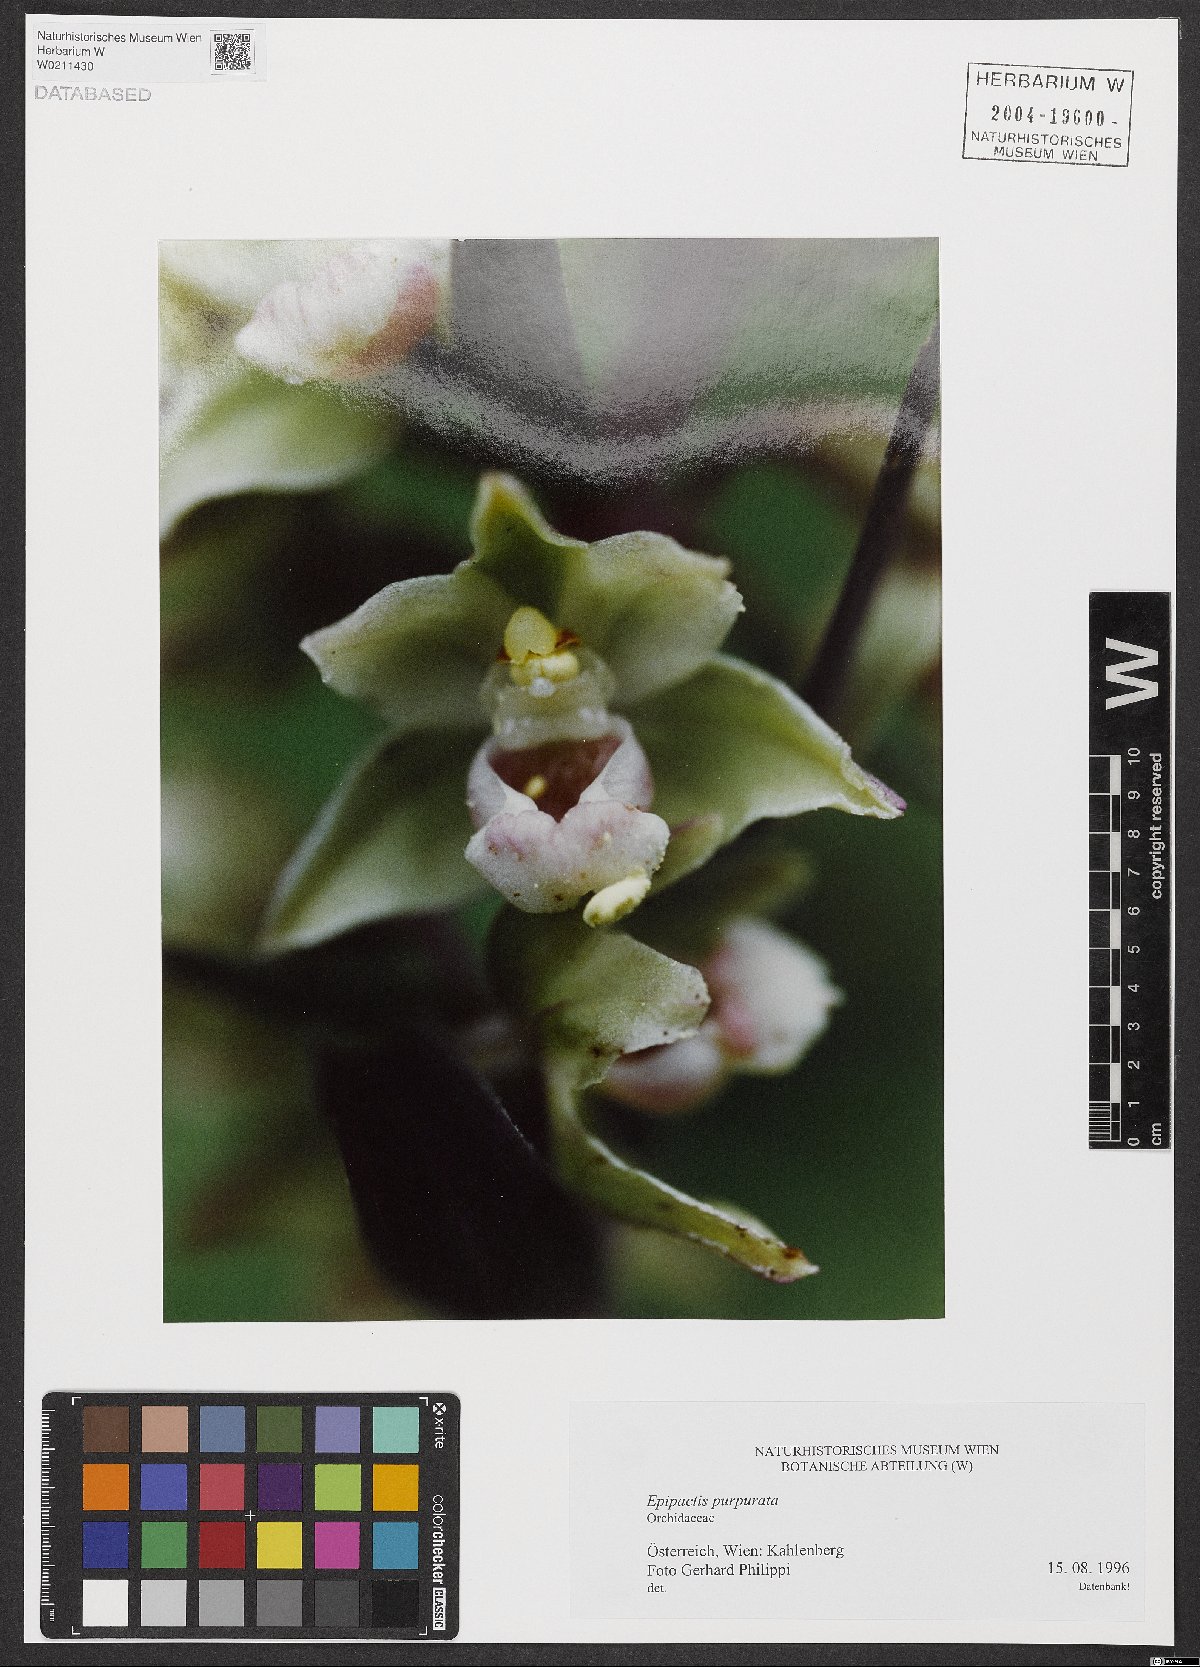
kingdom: Plantae
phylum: Tracheophyta
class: Liliopsida
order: Asparagales
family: Orchidaceae
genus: Epipactis
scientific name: Epipactis purpurata
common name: Violet helleborine
